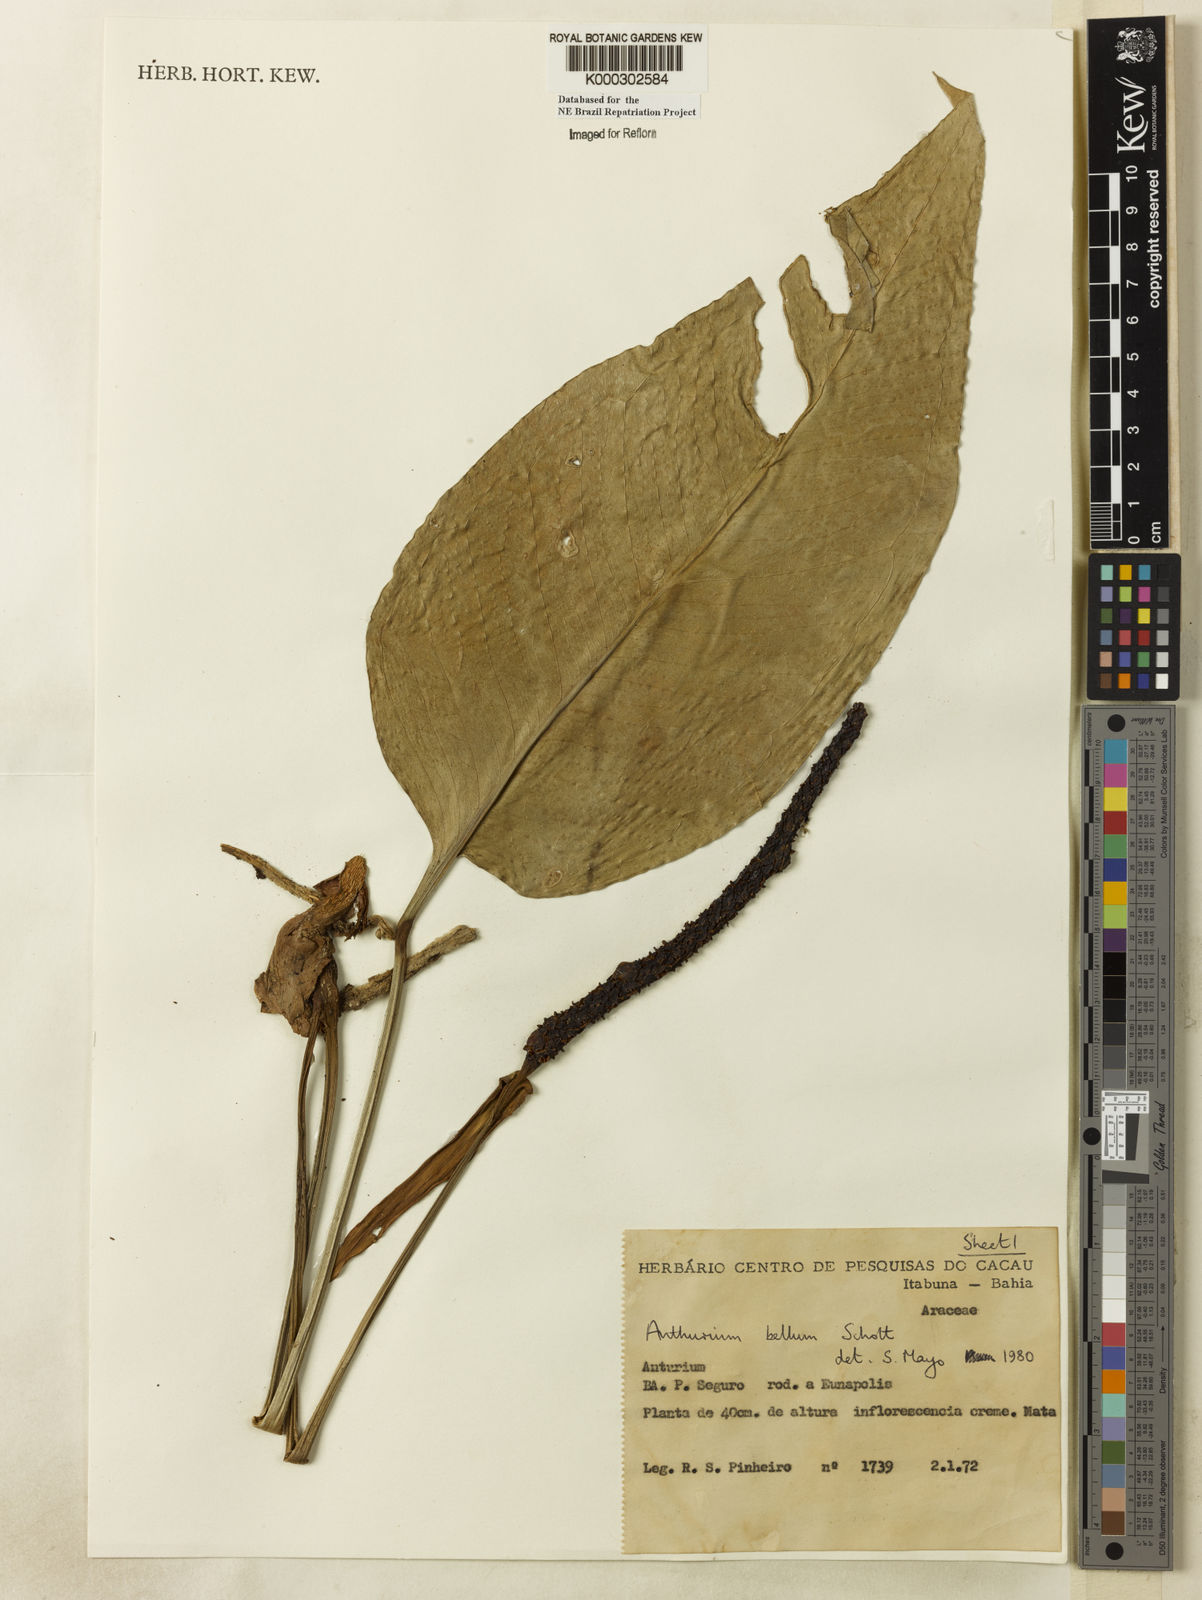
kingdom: Plantae
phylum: Tracheophyta
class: Liliopsida
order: Alismatales
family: Araceae
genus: Anthurium
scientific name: Anthurium bellum
